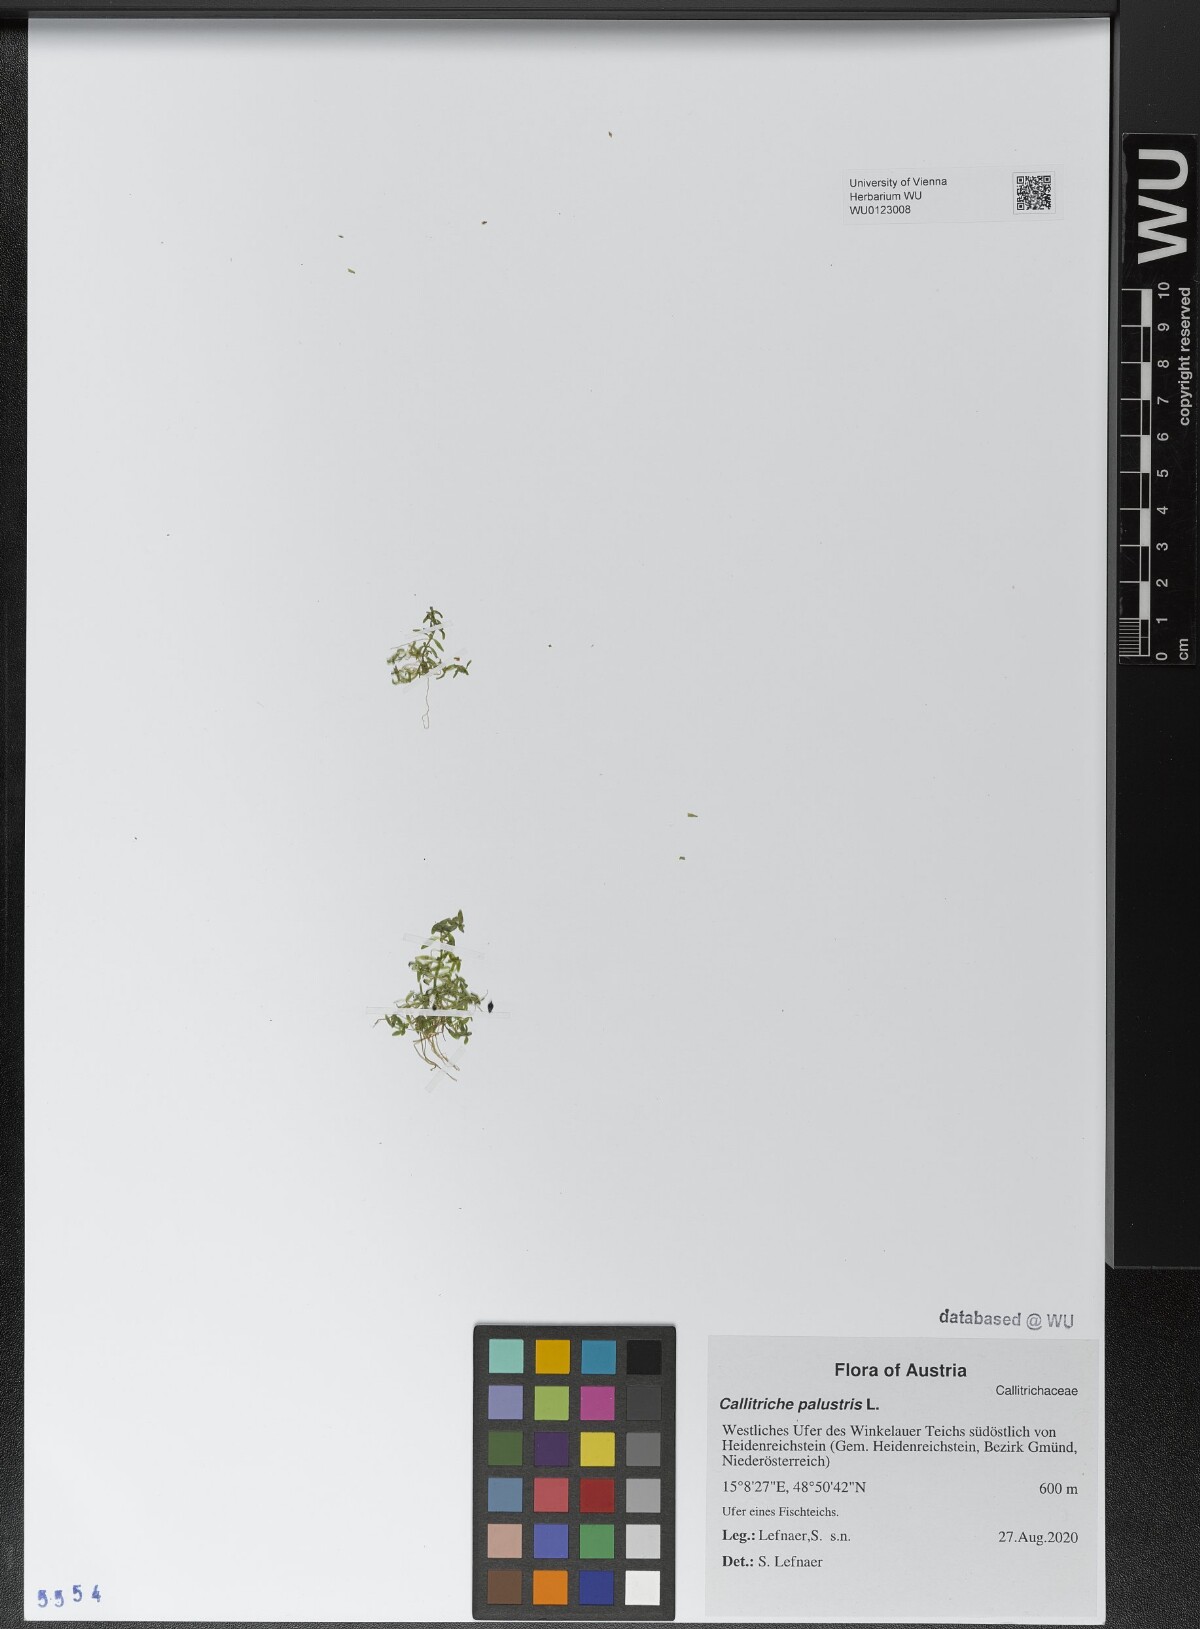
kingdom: Plantae
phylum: Tracheophyta
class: Magnoliopsida
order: Lamiales
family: Plantaginaceae
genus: Callitriche
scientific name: Callitriche palustris
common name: Spring water-starwort
